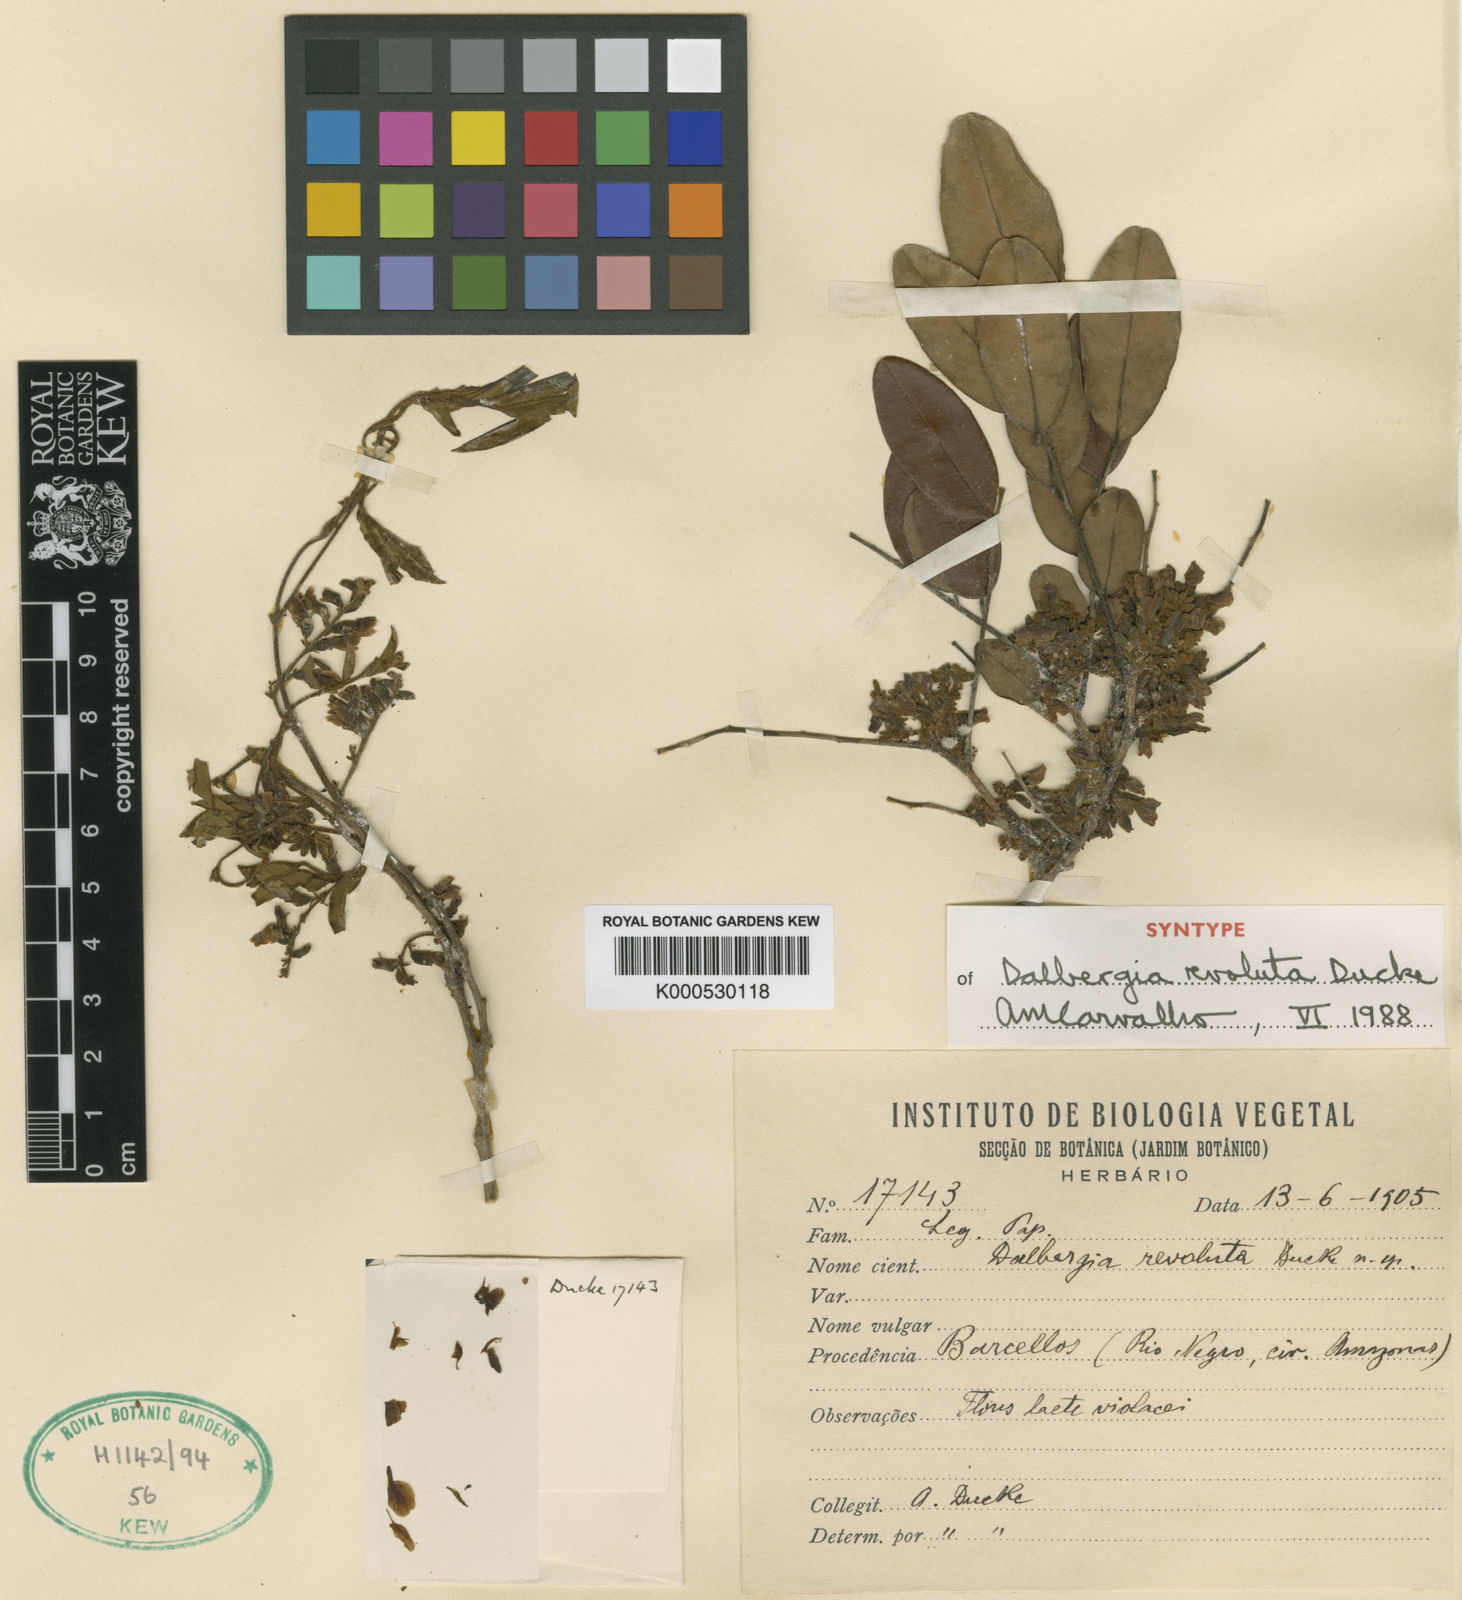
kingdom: Plantae
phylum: Tracheophyta
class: Magnoliopsida
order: Fabales
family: Fabaceae
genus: Dalbergia
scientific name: Dalbergia revoluta
